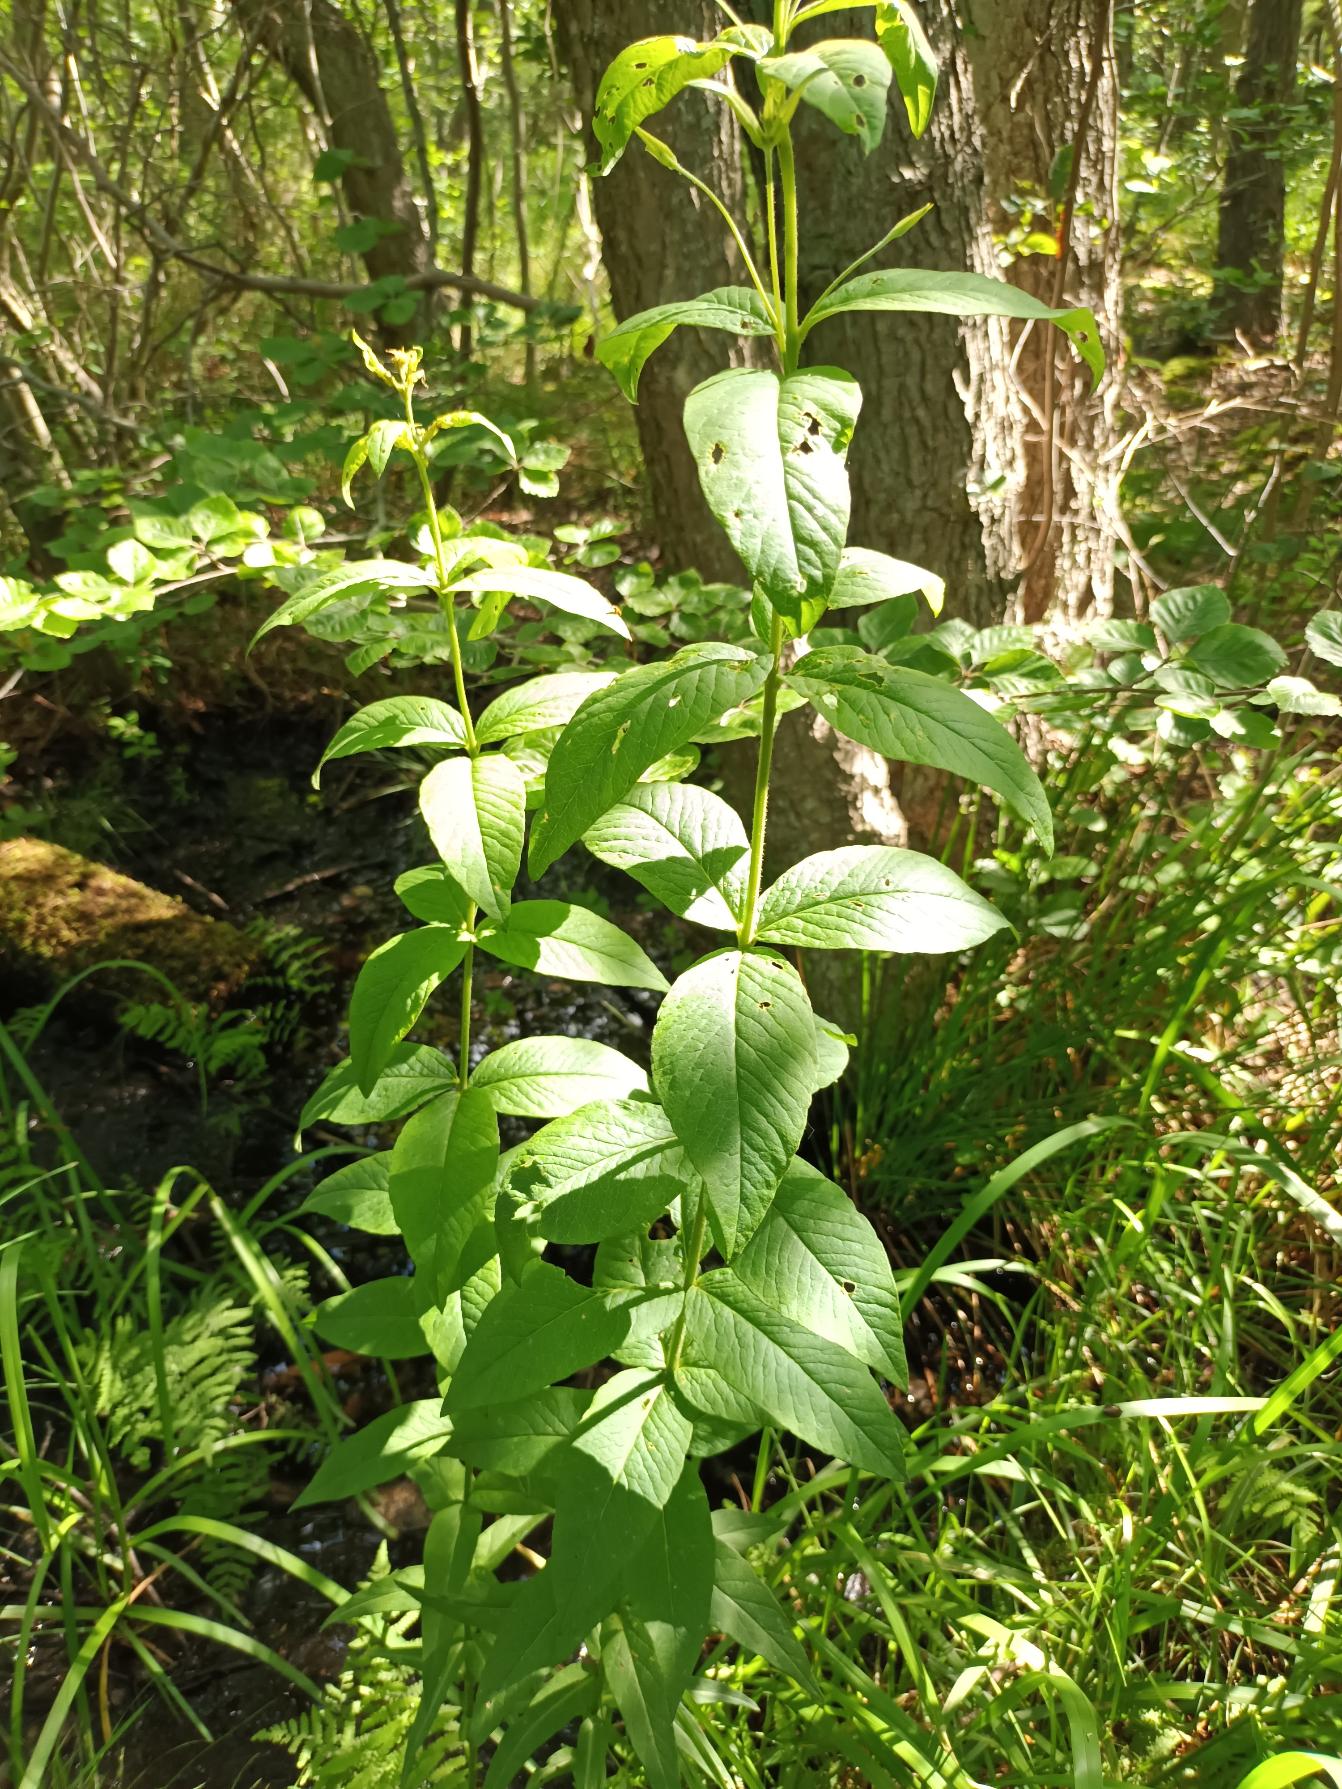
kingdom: Plantae
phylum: Tracheophyta
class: Magnoliopsida
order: Ericales
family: Primulaceae
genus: Lysimachia
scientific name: Lysimachia vulgaris
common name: Almindelig fredløs
